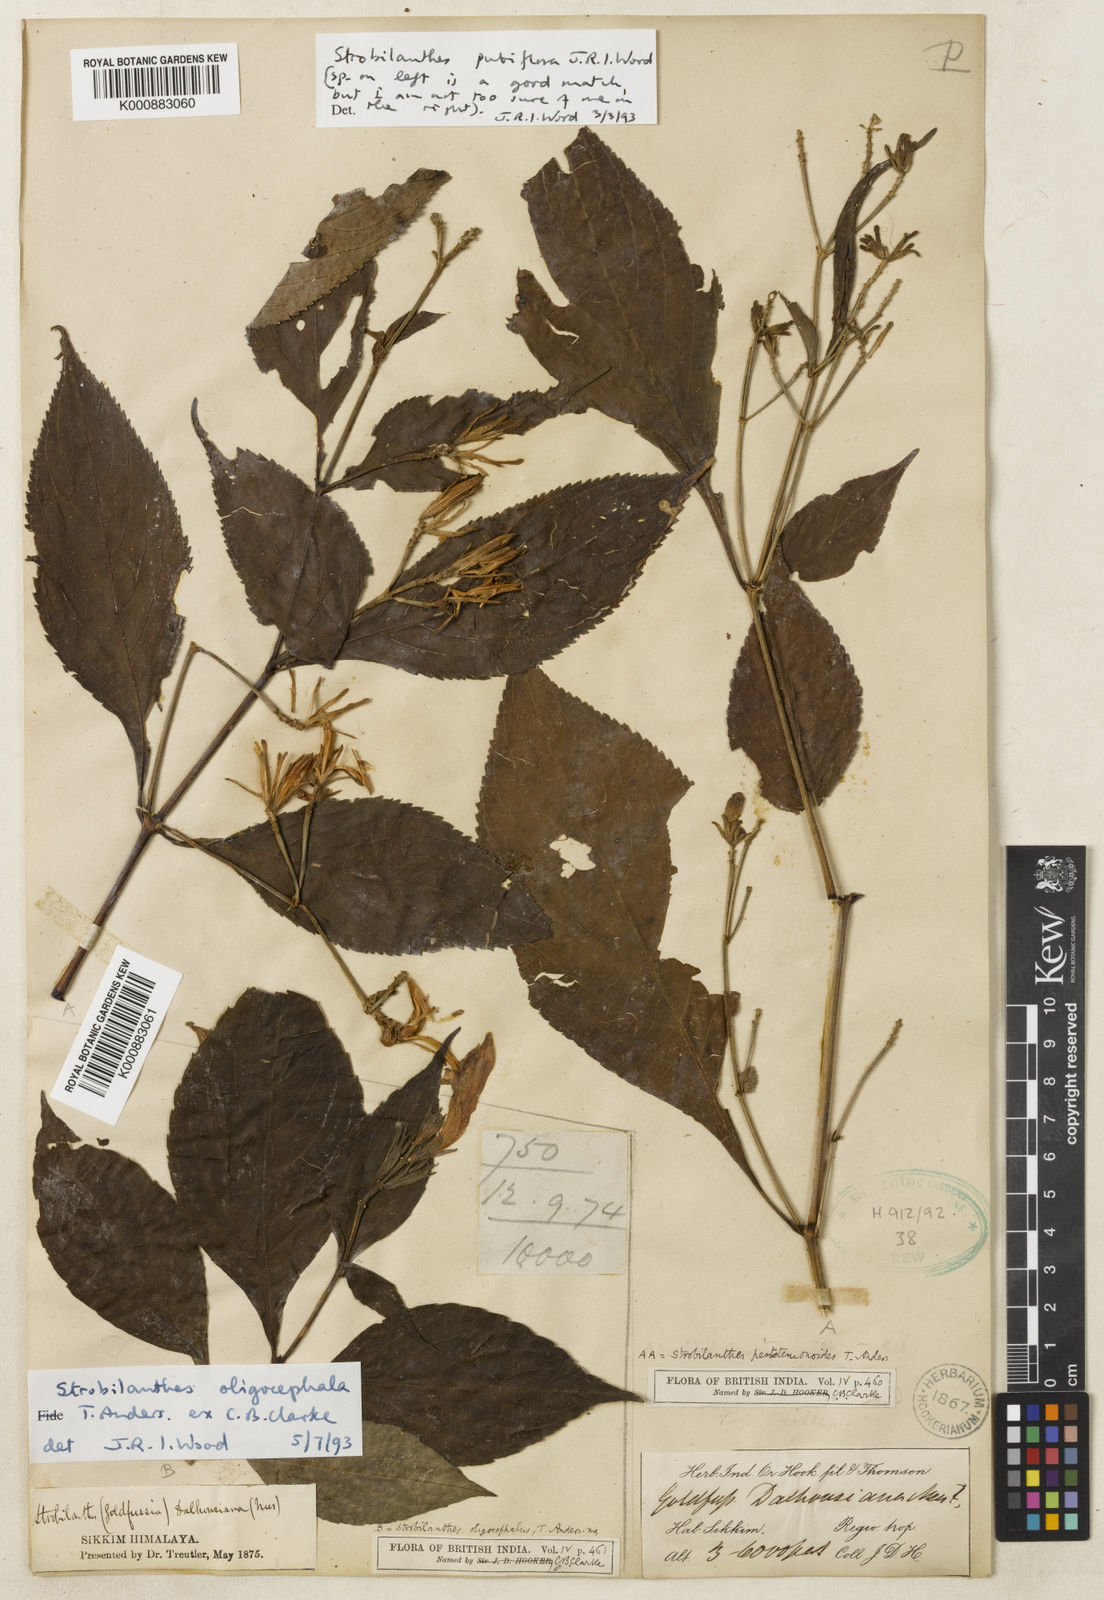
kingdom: Plantae
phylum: Tracheophyta
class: Magnoliopsida
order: Lamiales
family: Acanthaceae
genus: Strobilanthes
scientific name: Strobilanthes oligocephala
